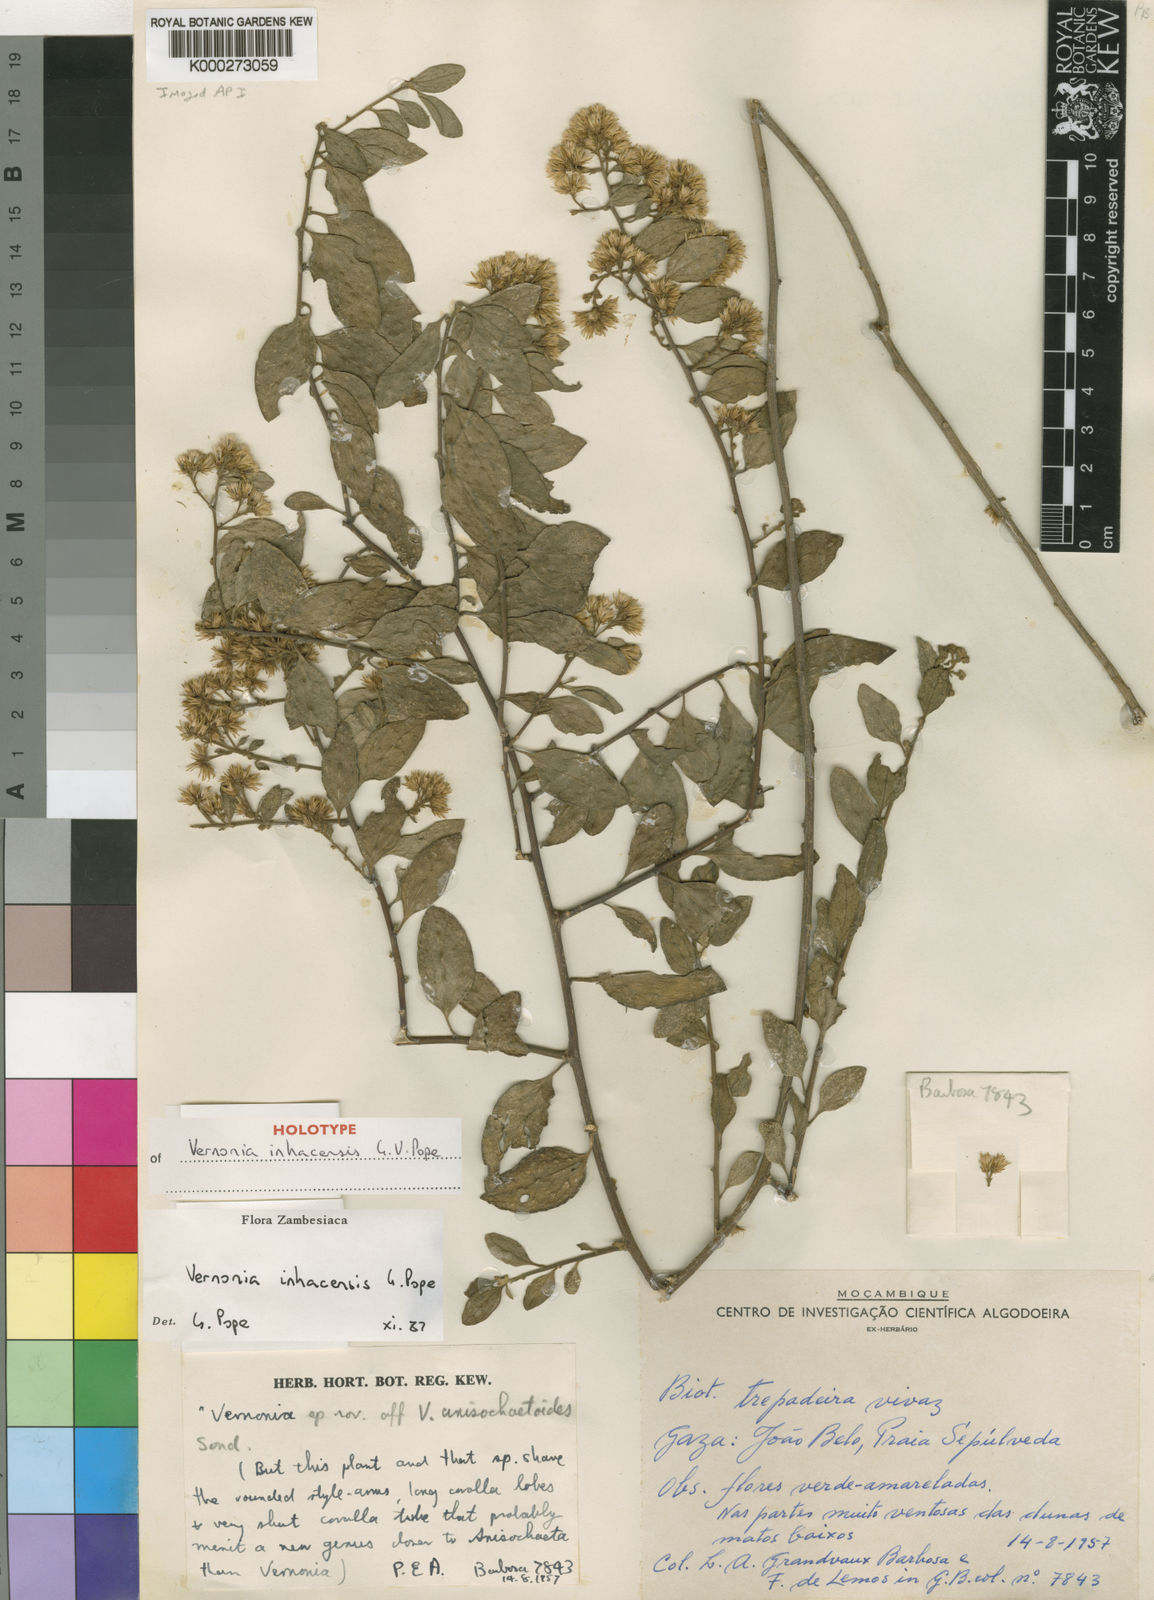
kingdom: Plantae
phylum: Tracheophyta
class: Magnoliopsida
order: Asterales
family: Asteraceae
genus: Distephanus
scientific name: Distephanus inhacensis
